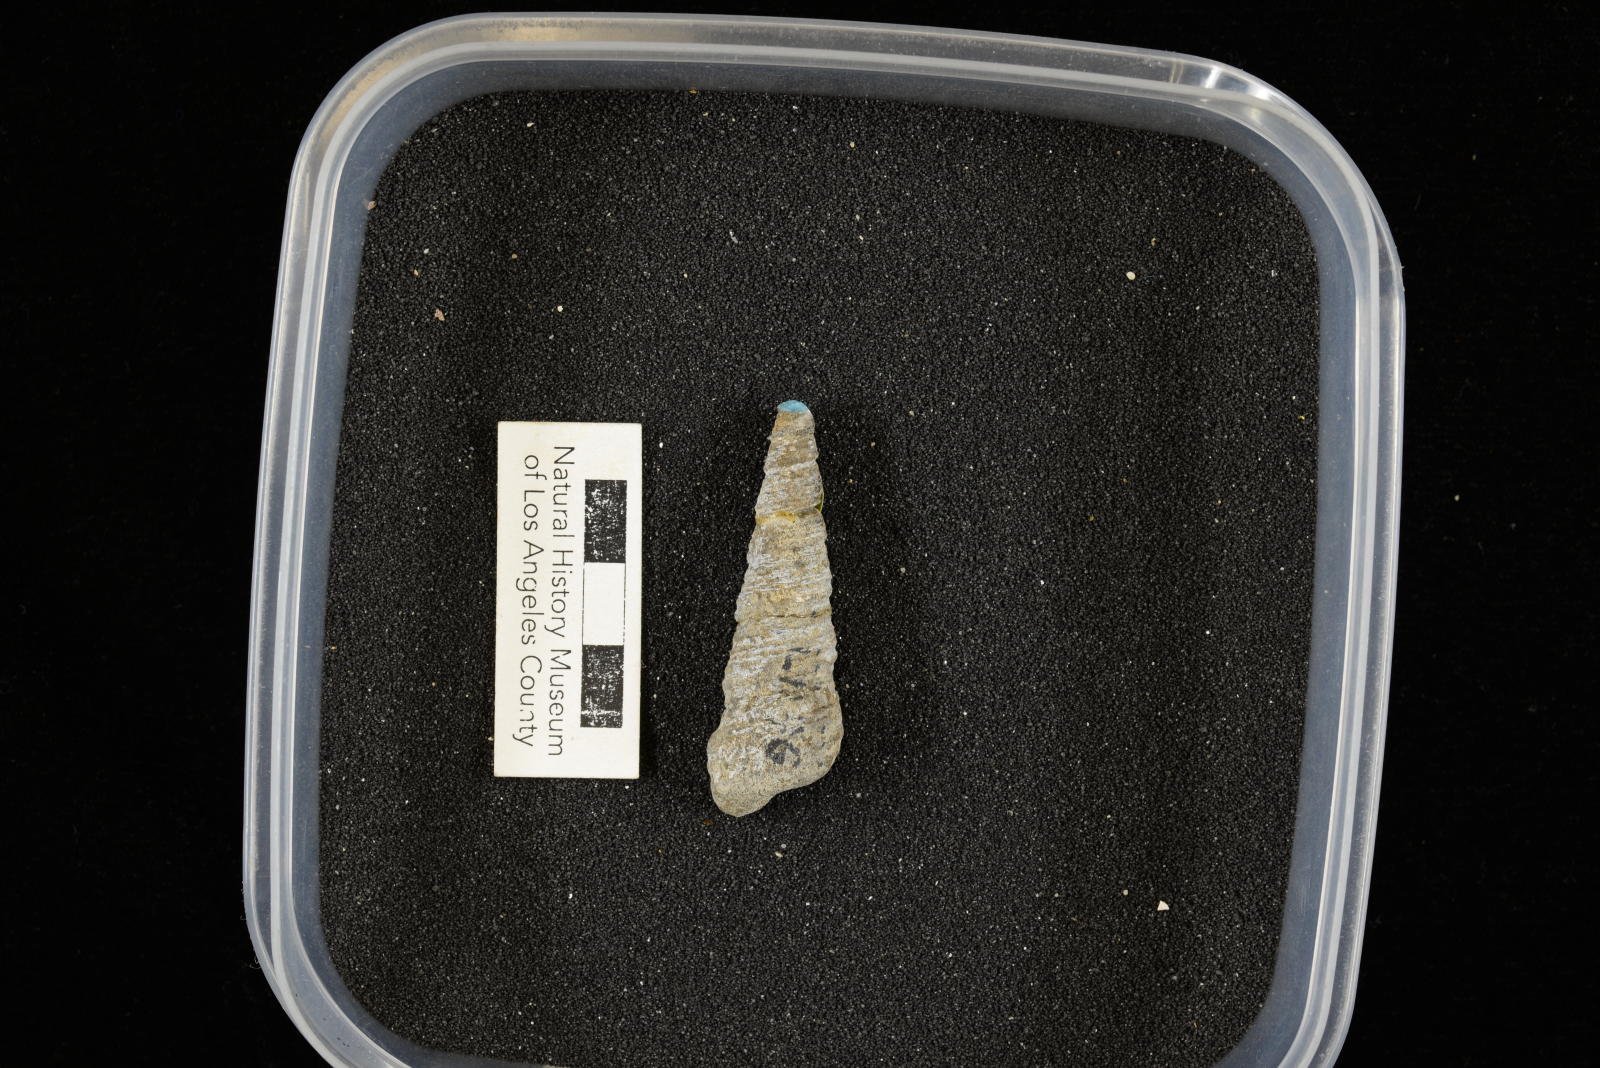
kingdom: Animalia
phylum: Mollusca
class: Gastropoda
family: Turritellidae
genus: Turritella
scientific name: Turritella
